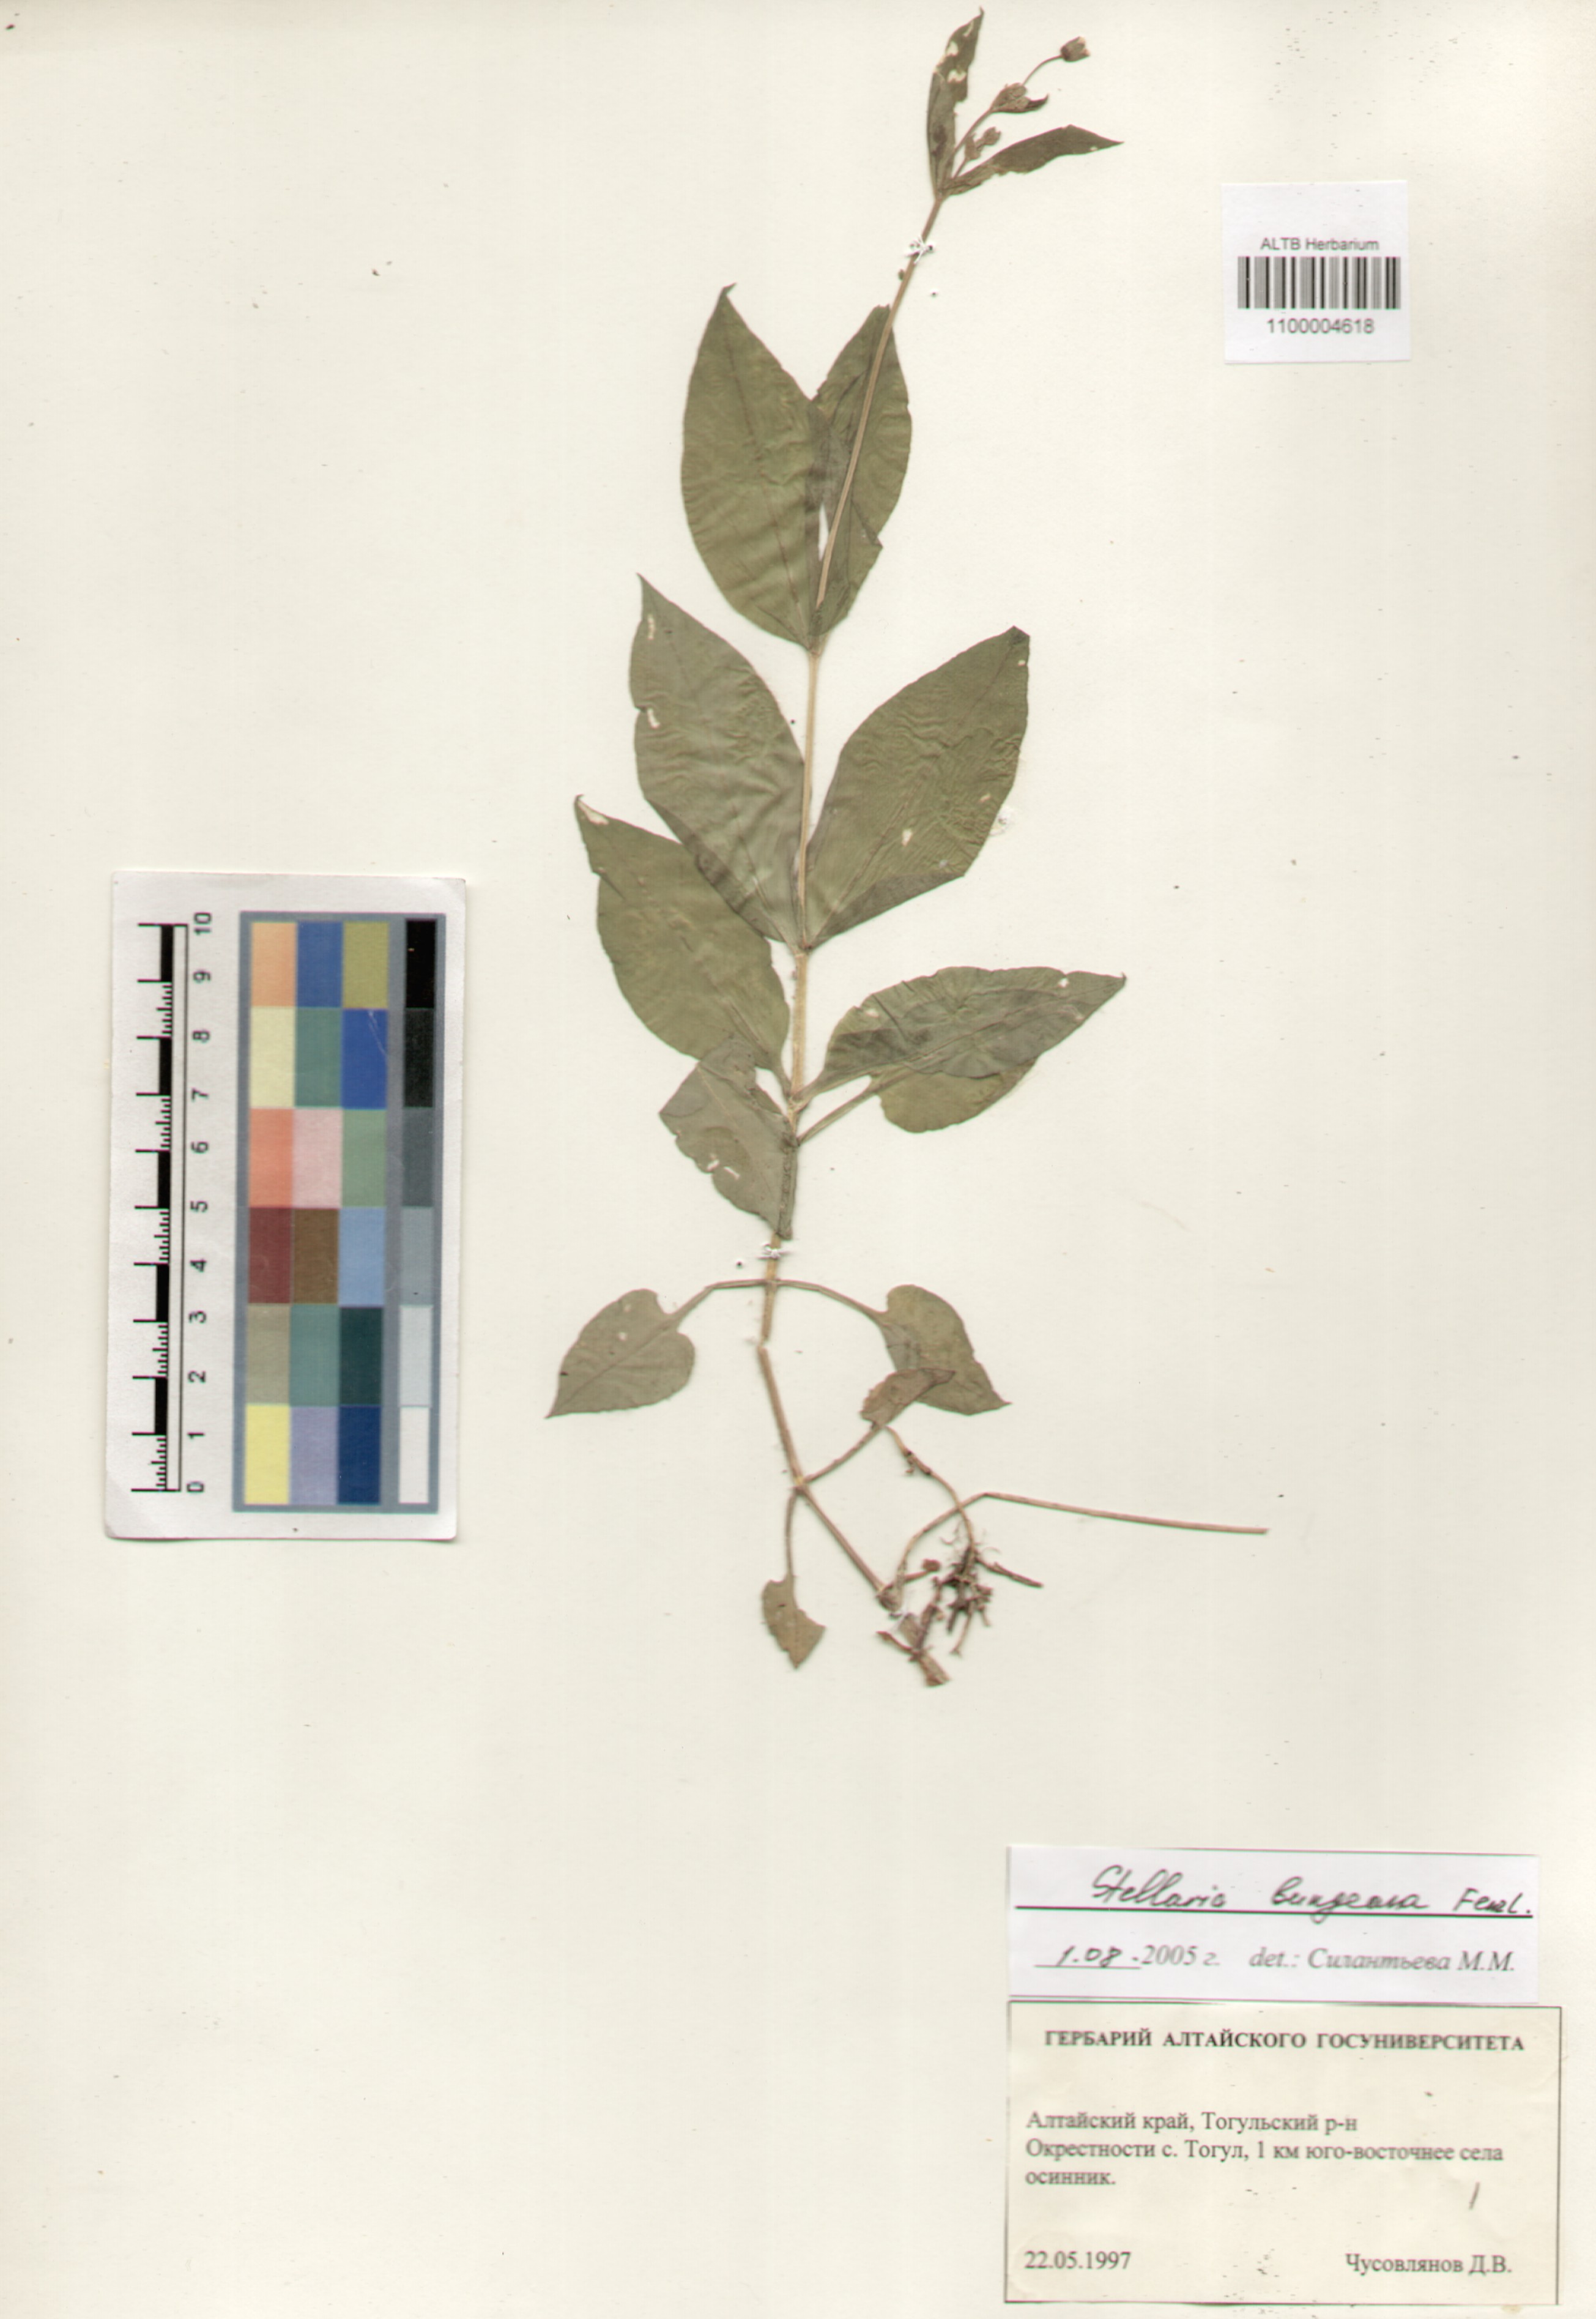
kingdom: Plantae
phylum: Tracheophyta
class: Magnoliopsida
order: Caryophyllales
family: Caryophyllaceae
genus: Stellaria
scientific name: Stellaria bungeana
